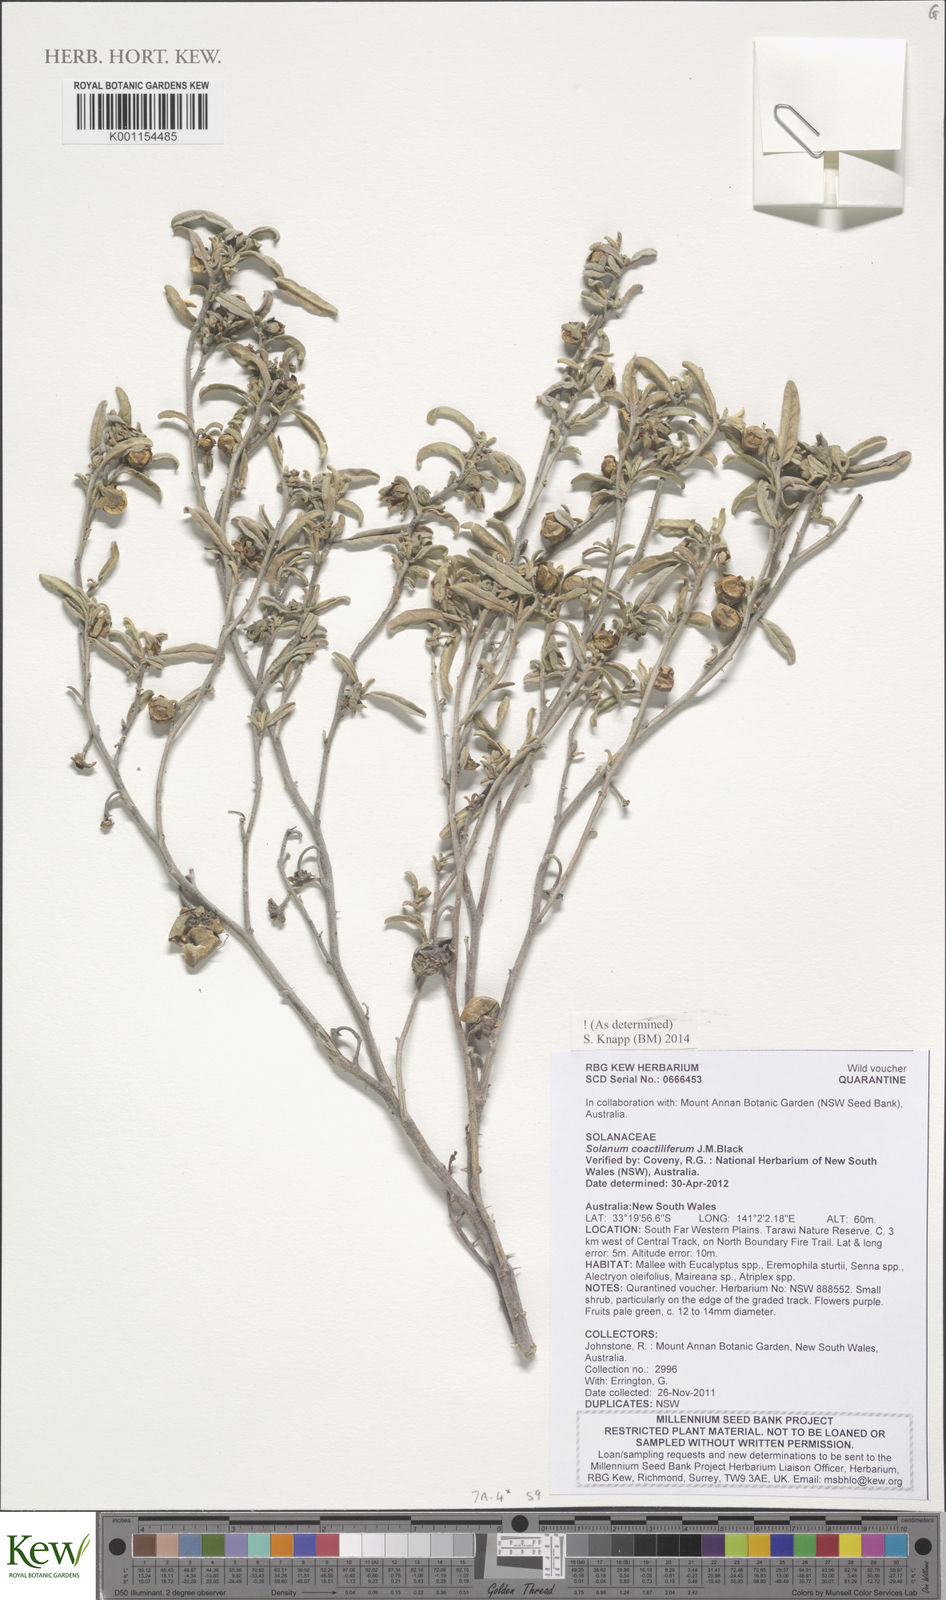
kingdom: Plantae
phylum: Tracheophyta
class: Magnoliopsida
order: Solanales
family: Solanaceae
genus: Solanum
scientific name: Solanum coactiliferum
